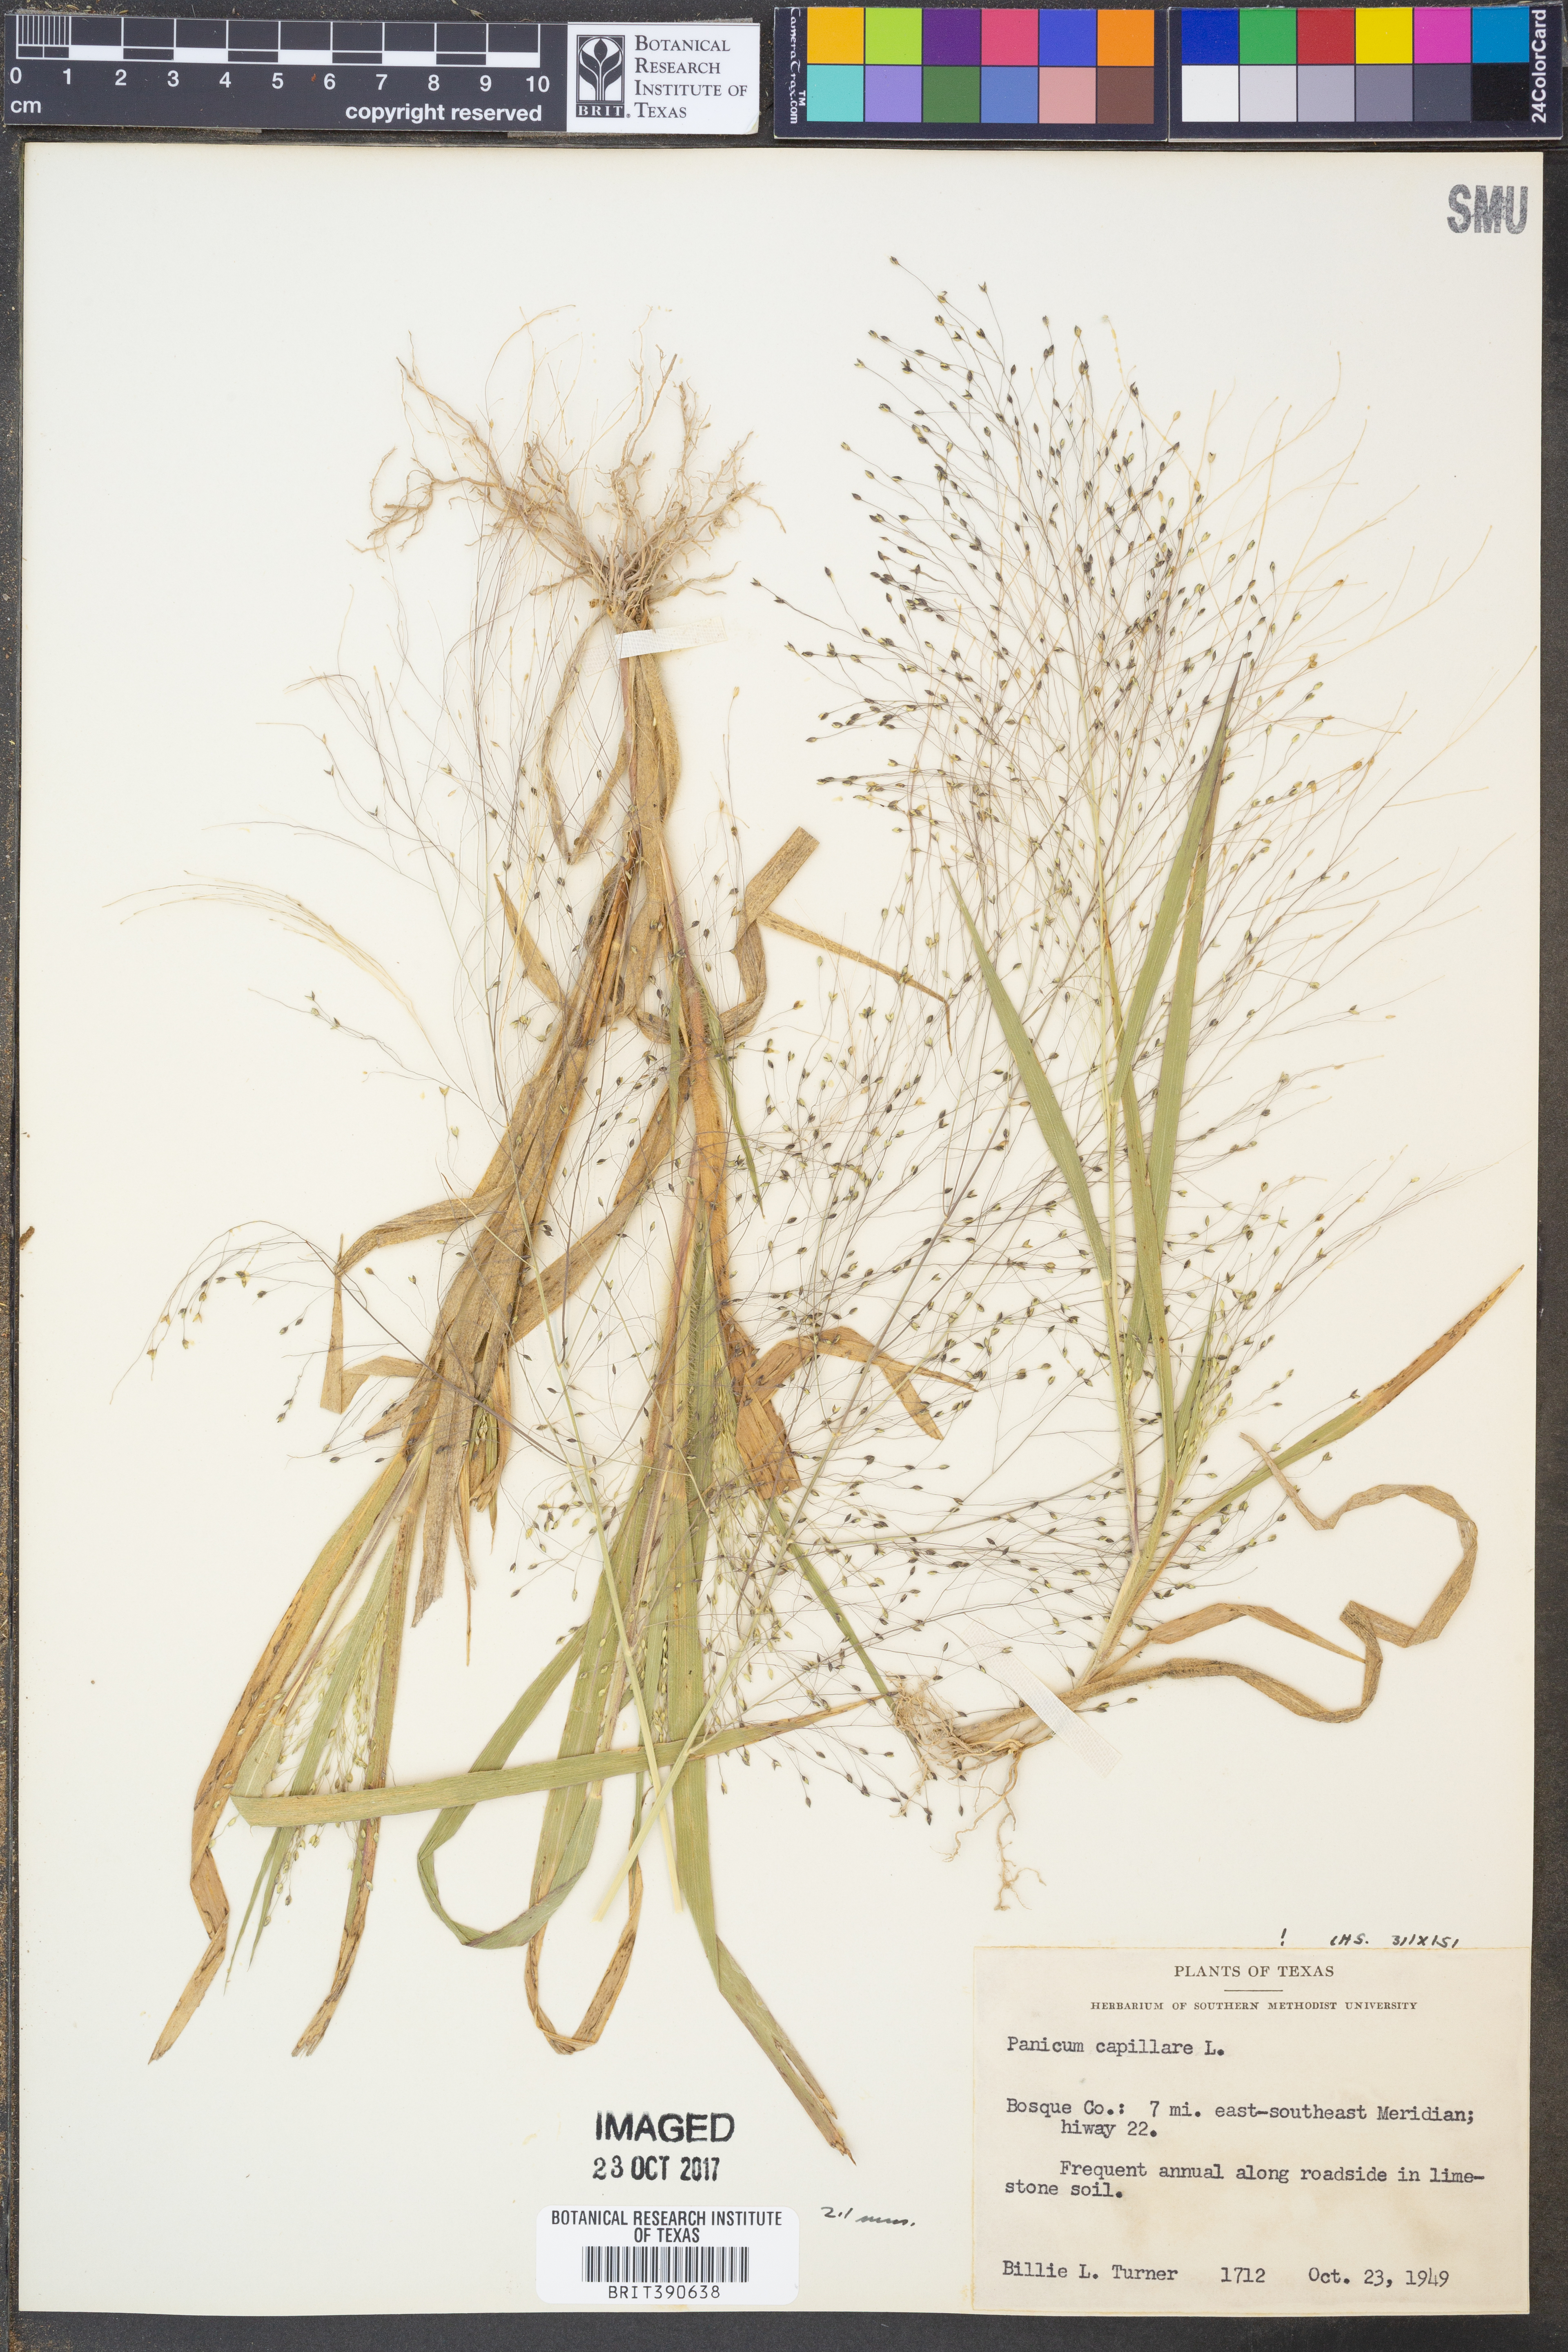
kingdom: Plantae
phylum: Tracheophyta
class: Liliopsida
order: Poales
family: Poaceae
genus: Panicum
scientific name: Panicum capillare
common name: Witch-grass
